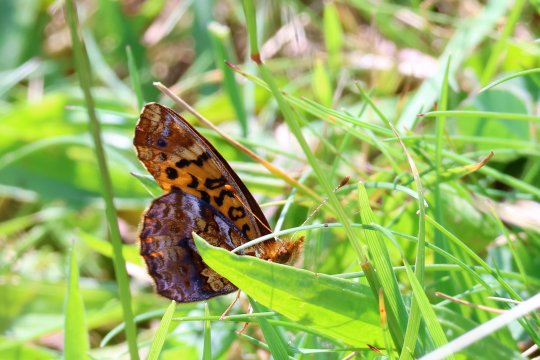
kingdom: Animalia
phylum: Arthropoda
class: Insecta
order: Lepidoptera
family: Nymphalidae
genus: Clossiana
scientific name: Clossiana toddi
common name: Meadow Fritillary
